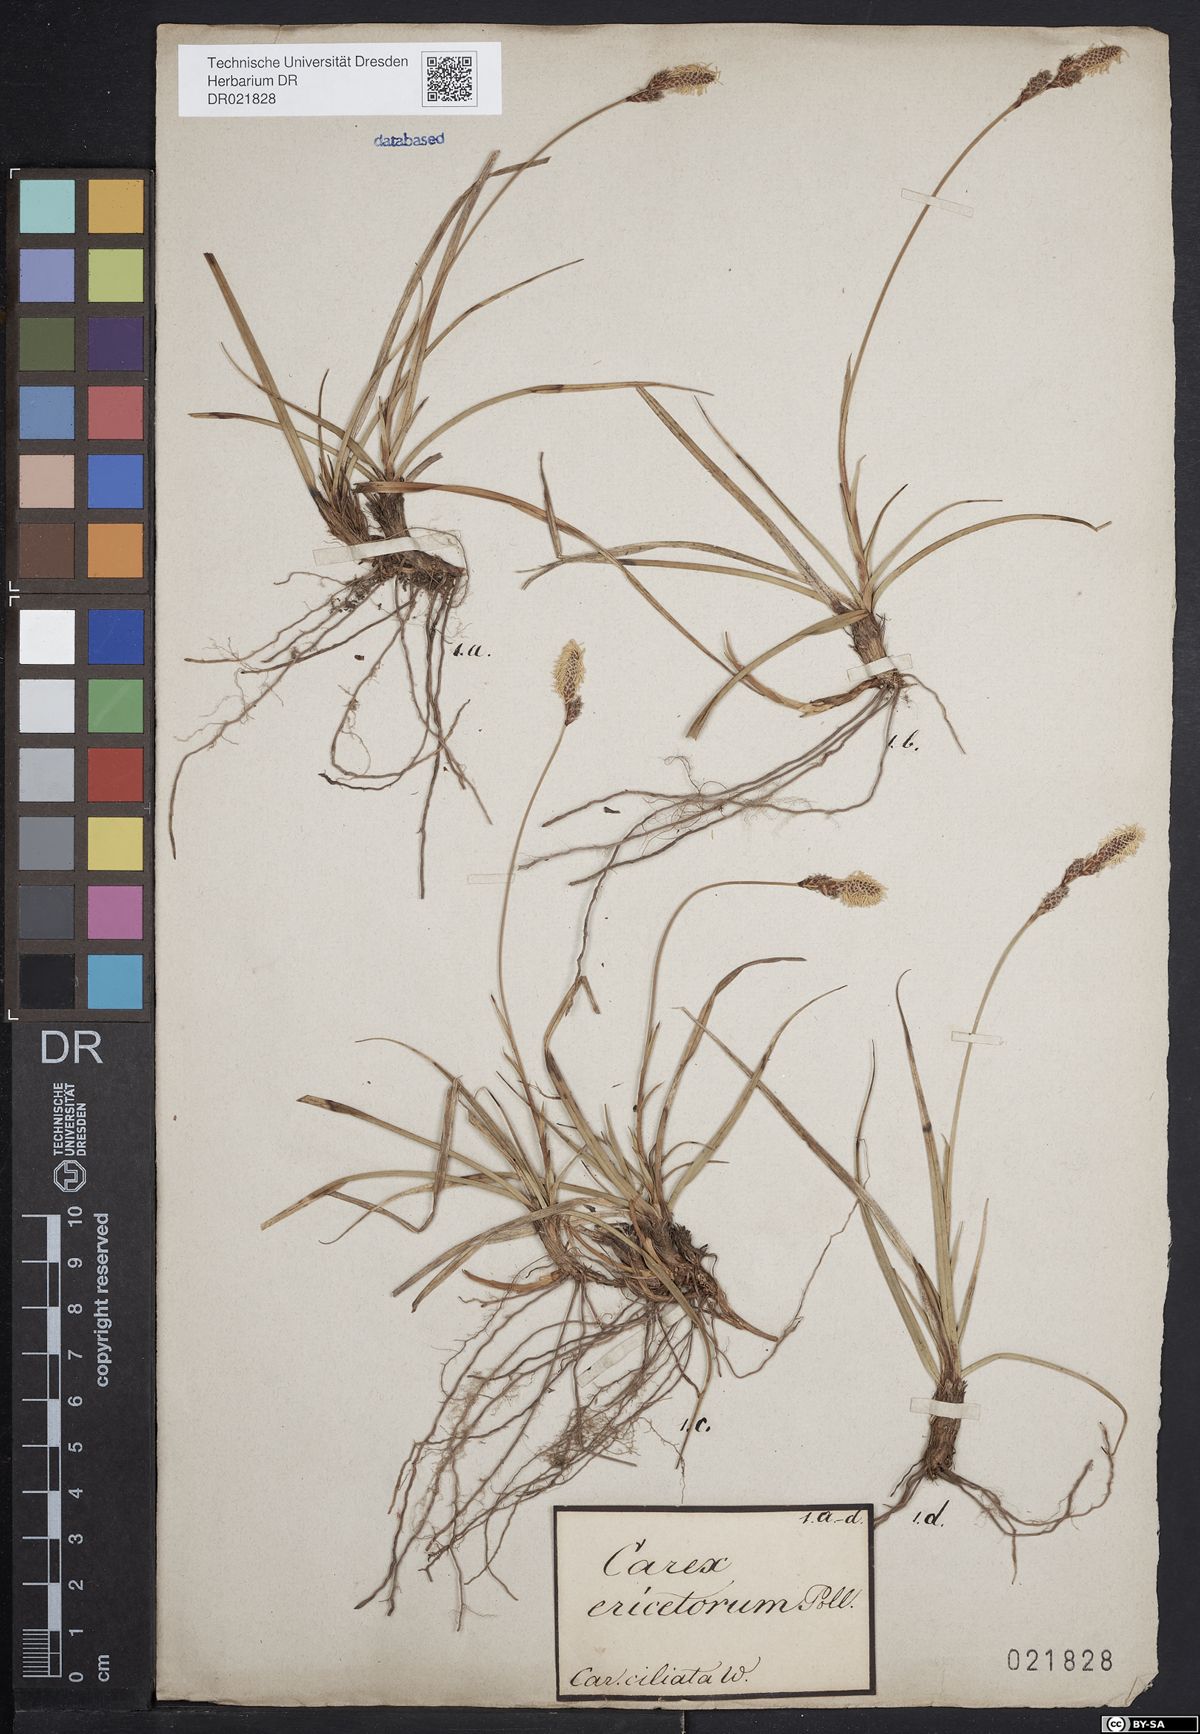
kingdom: Plantae
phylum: Tracheophyta
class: Liliopsida
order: Poales
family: Cyperaceae
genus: Carex
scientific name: Carex ericetorum
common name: Rare spring-sedge
